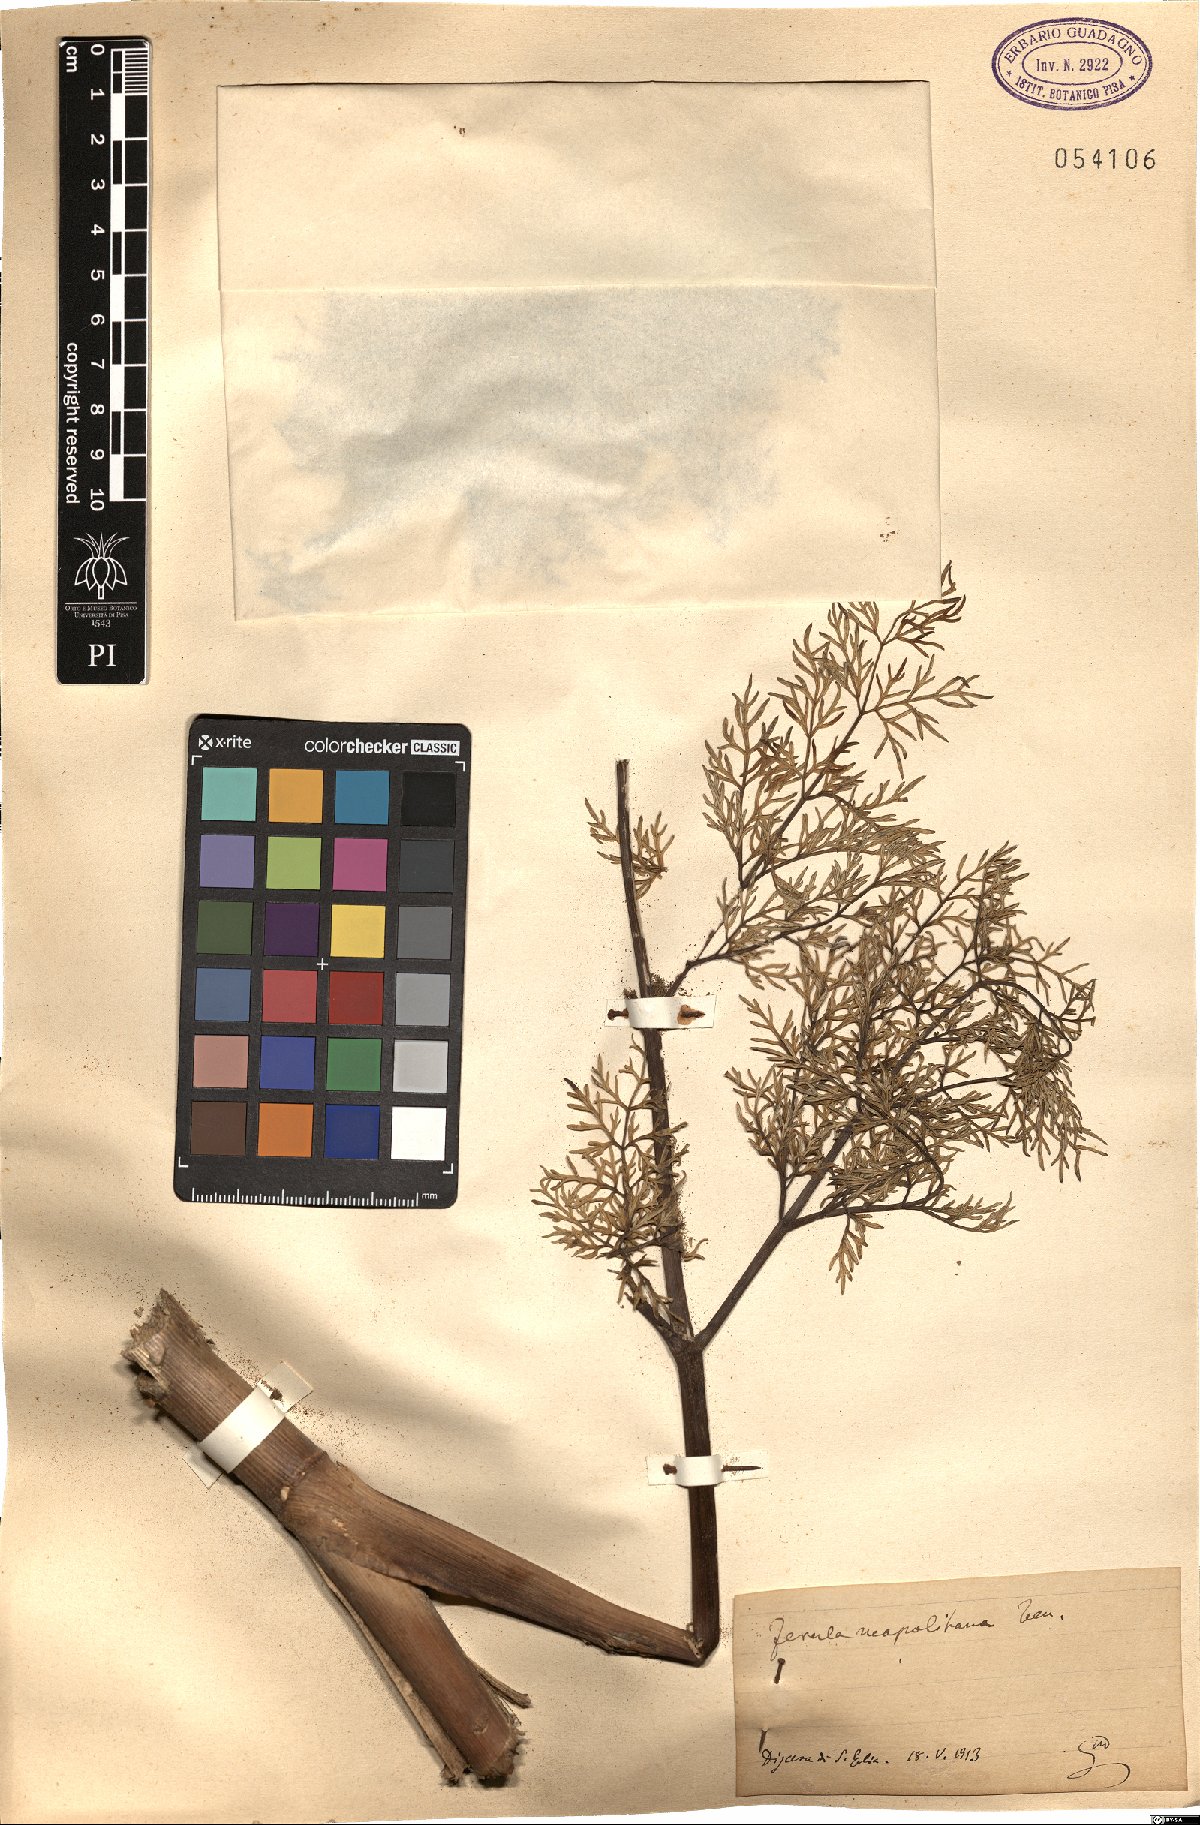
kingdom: Plantae
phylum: Tracheophyta
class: Magnoliopsida
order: Apiales
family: Apiaceae
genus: Ferula
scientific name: Ferula glauca
